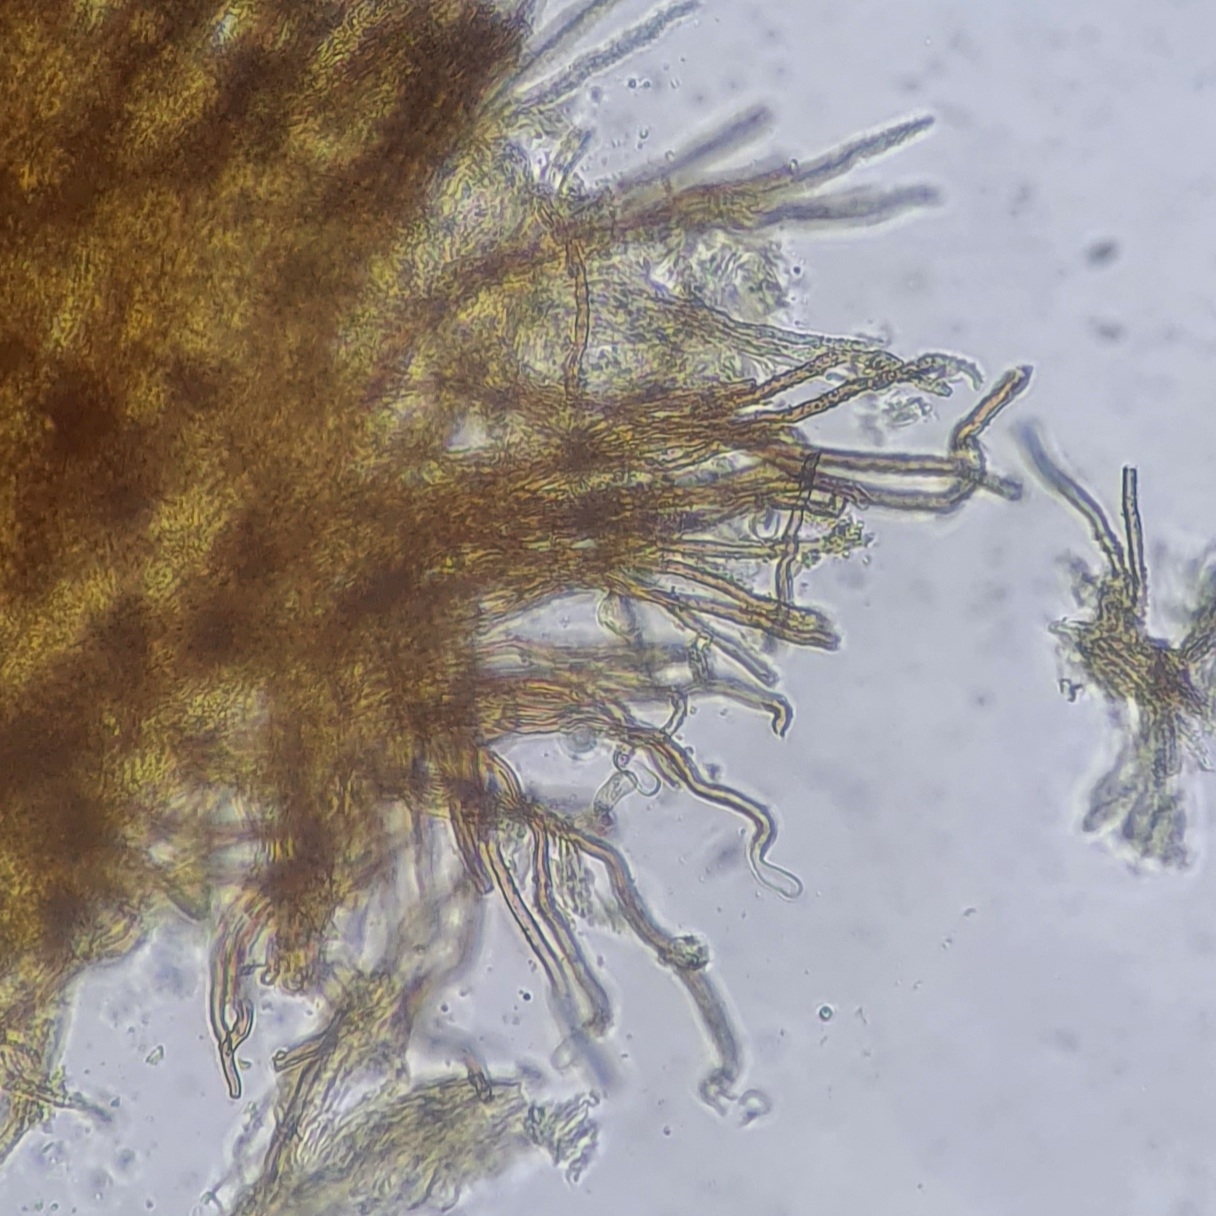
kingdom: Fungi
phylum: Basidiomycota
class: Agaricomycetes
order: Agaricales
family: Niaceae
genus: Merismodes
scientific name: Merismodes anomala
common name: almindelig læderskål
